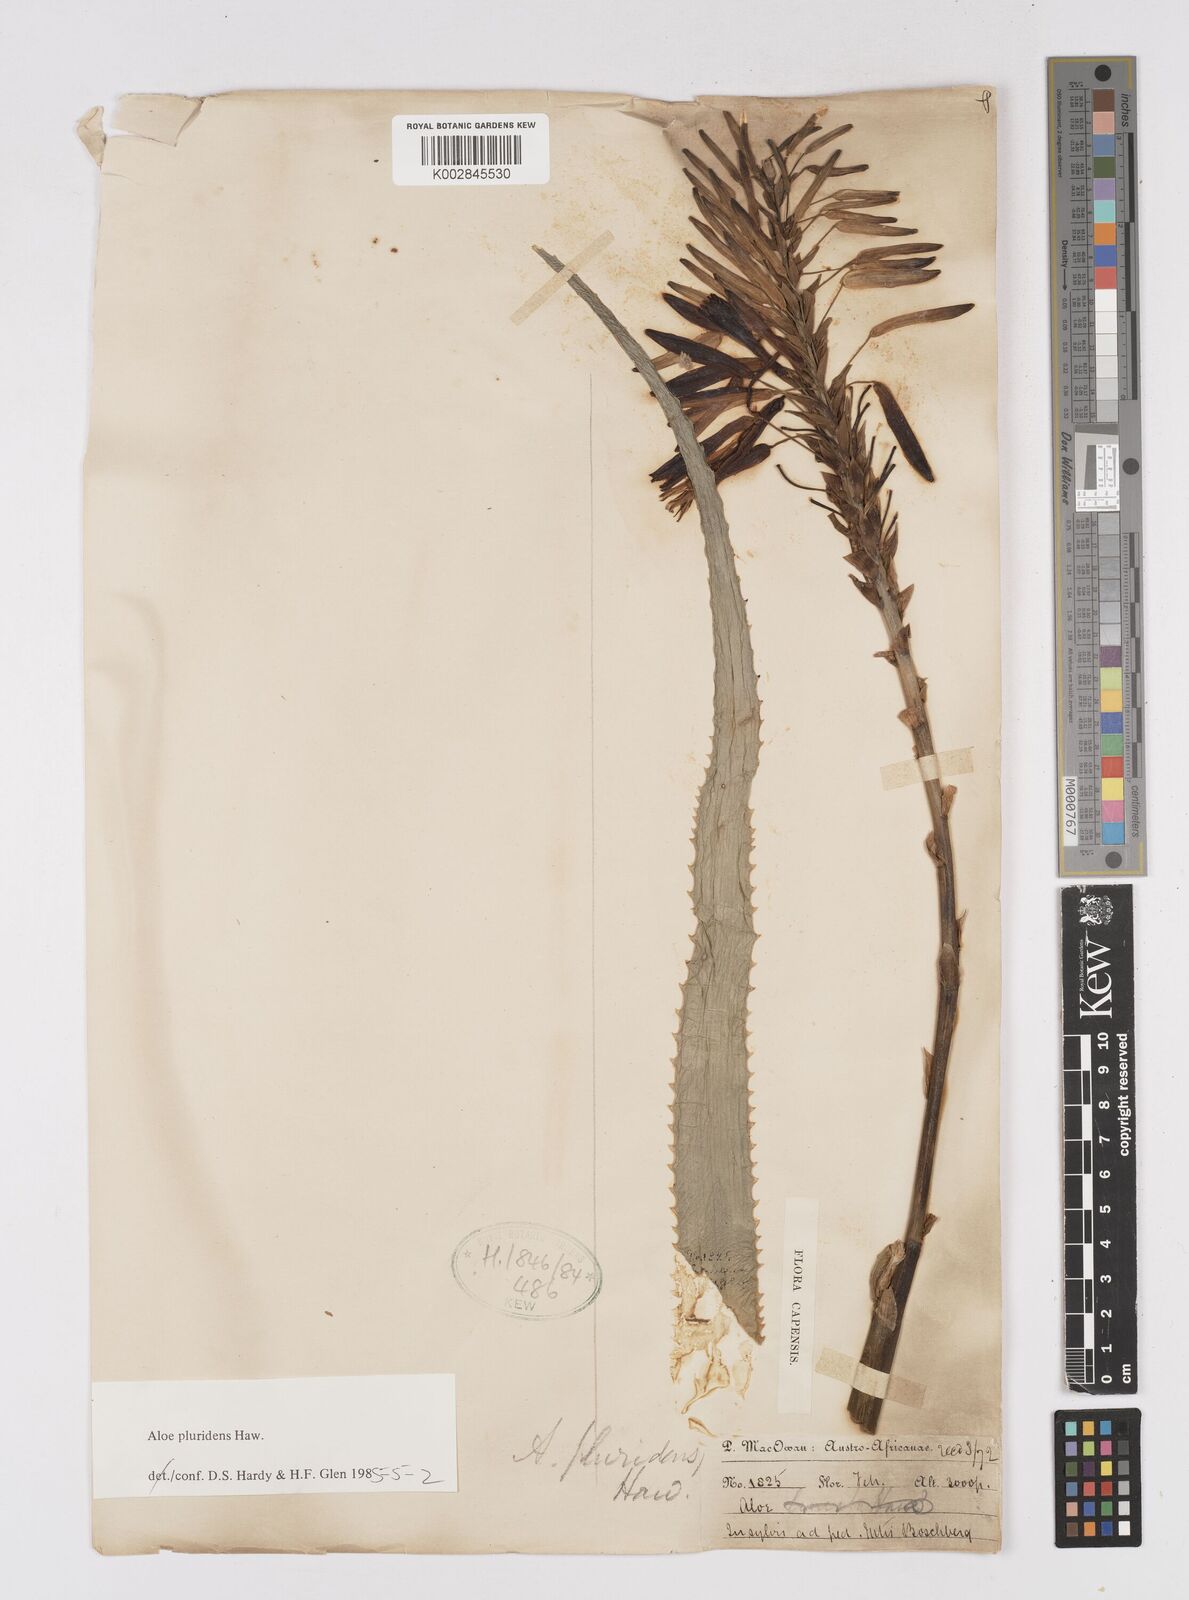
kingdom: Plantae
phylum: Tracheophyta
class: Liliopsida
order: Asparagales
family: Asphodelaceae
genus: Aloe
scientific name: Aloe pluridens
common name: French aloe
